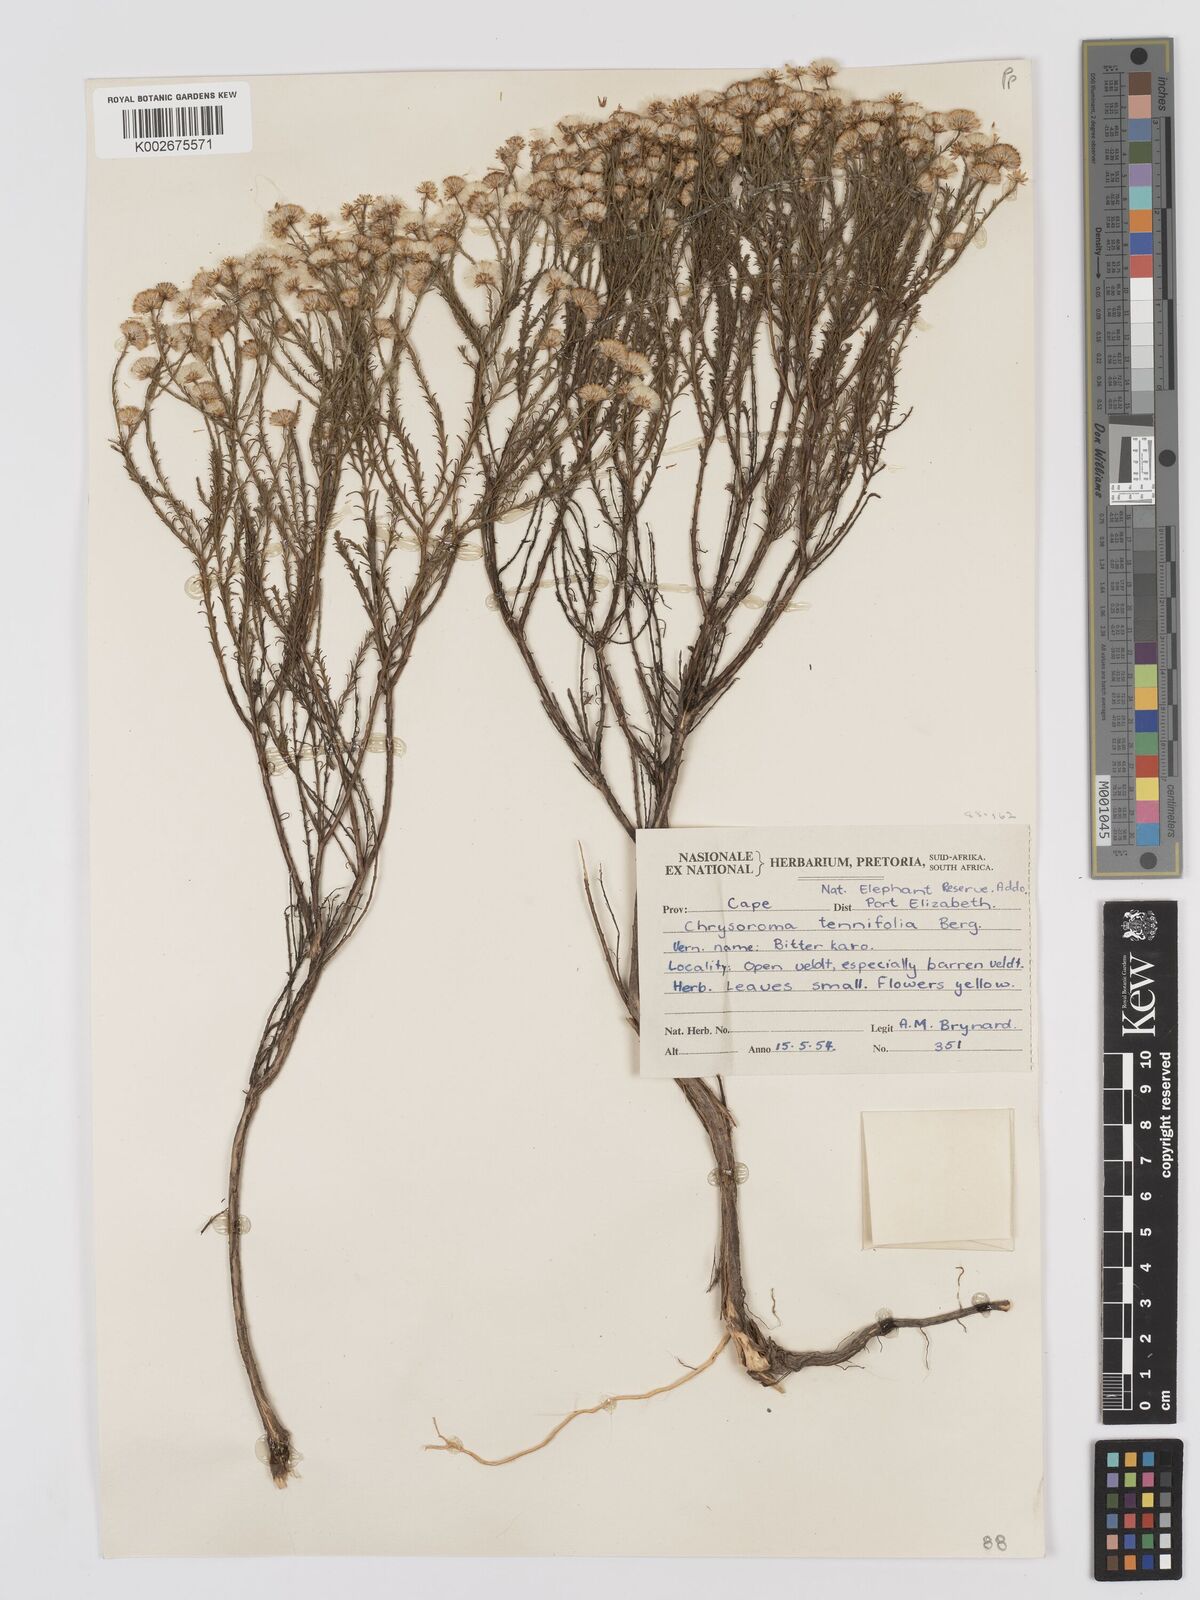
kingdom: Plantae
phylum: Tracheophyta
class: Magnoliopsida
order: Asterales
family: Asteraceae
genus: Chrysocoma
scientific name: Chrysocoma ciliata
